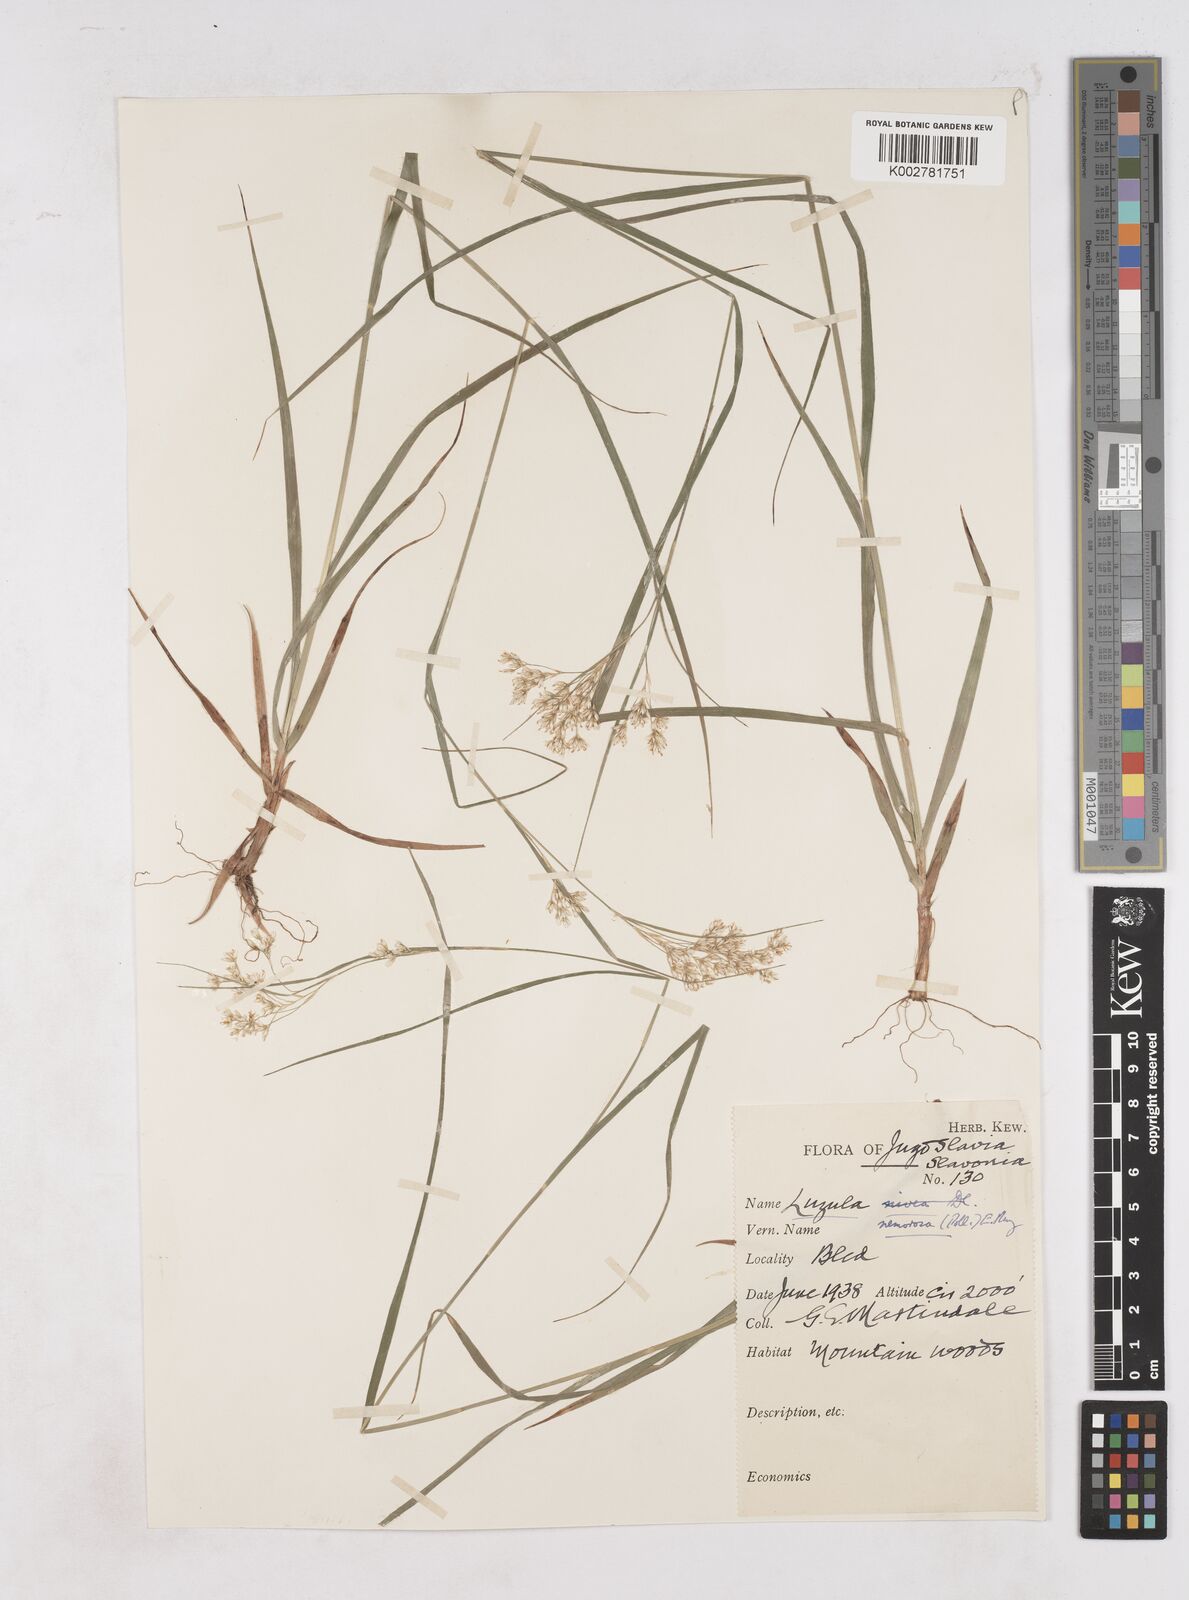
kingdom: Plantae
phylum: Tracheophyta
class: Liliopsida
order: Poales
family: Juncaceae
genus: Luzula
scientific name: Luzula luzuloides
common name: White wood-rush
